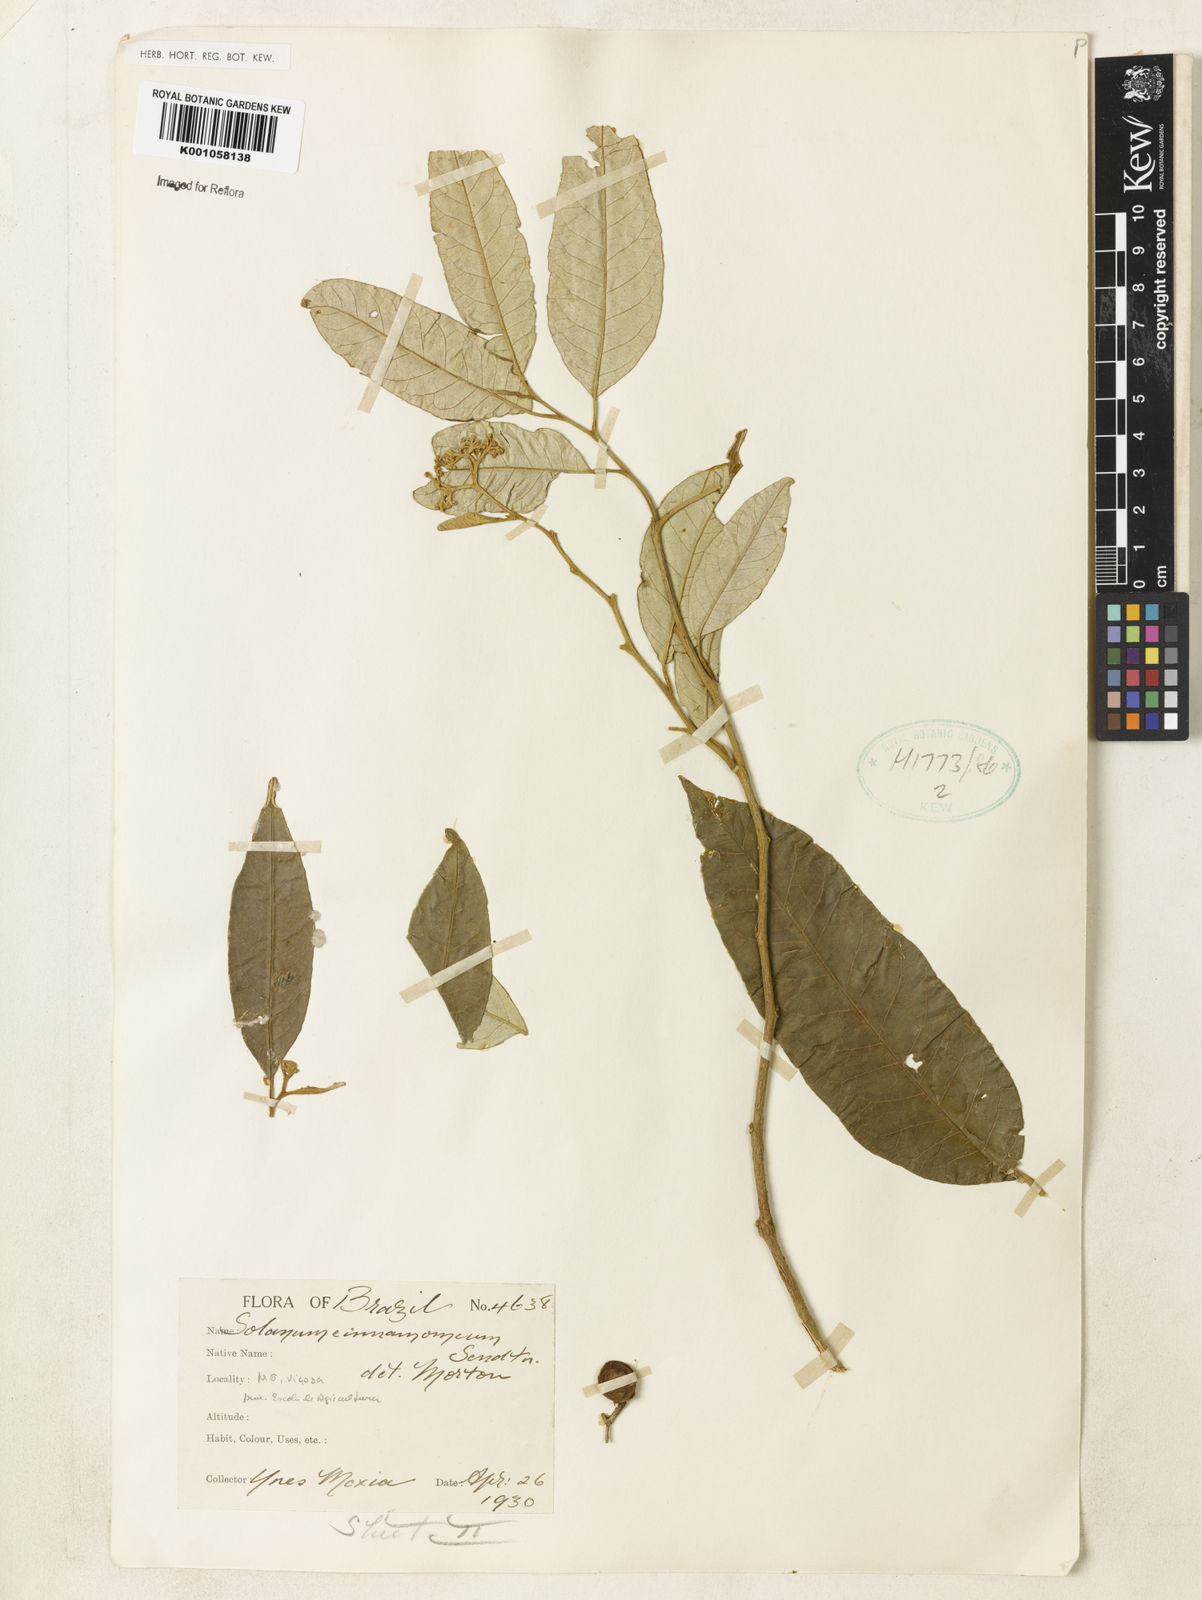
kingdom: Plantae
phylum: Tracheophyta
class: Magnoliopsida
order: Solanales
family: Solanaceae
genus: Solanum
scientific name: Solanum cinnamomeum
